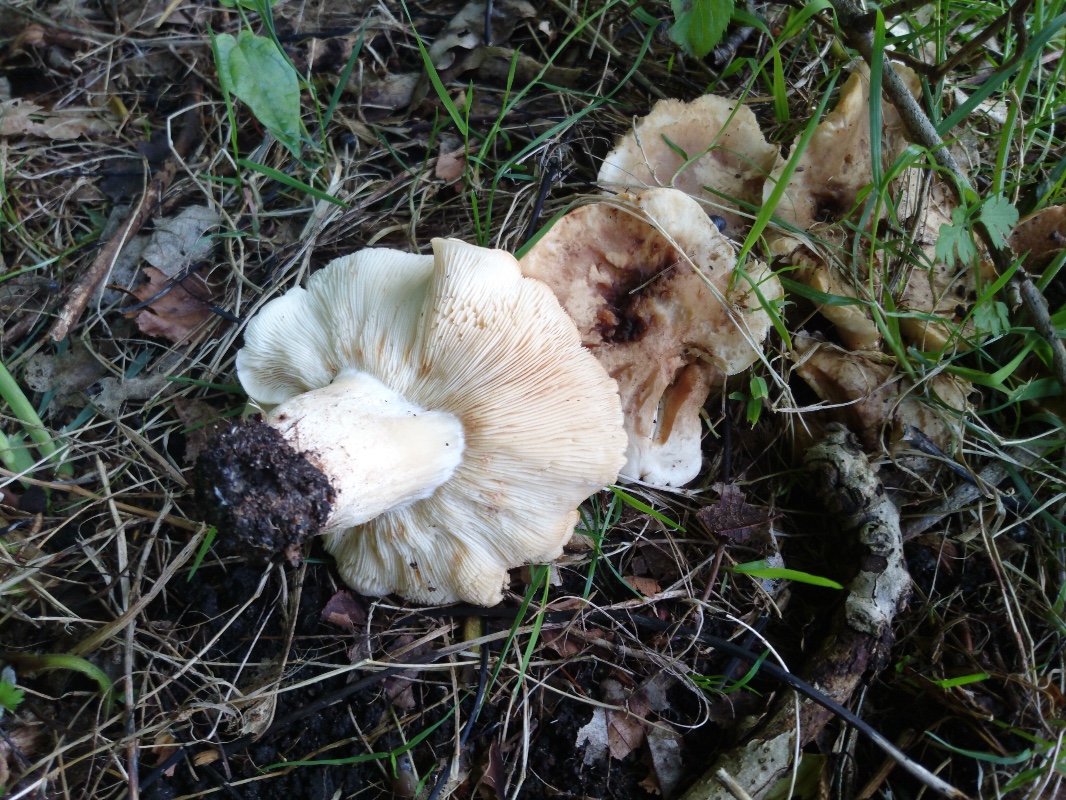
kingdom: Fungi
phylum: Basidiomycota
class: Agaricomycetes
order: Agaricales
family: Lyophyllaceae
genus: Calocybe
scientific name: Calocybe gambosa
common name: vårmusseron
